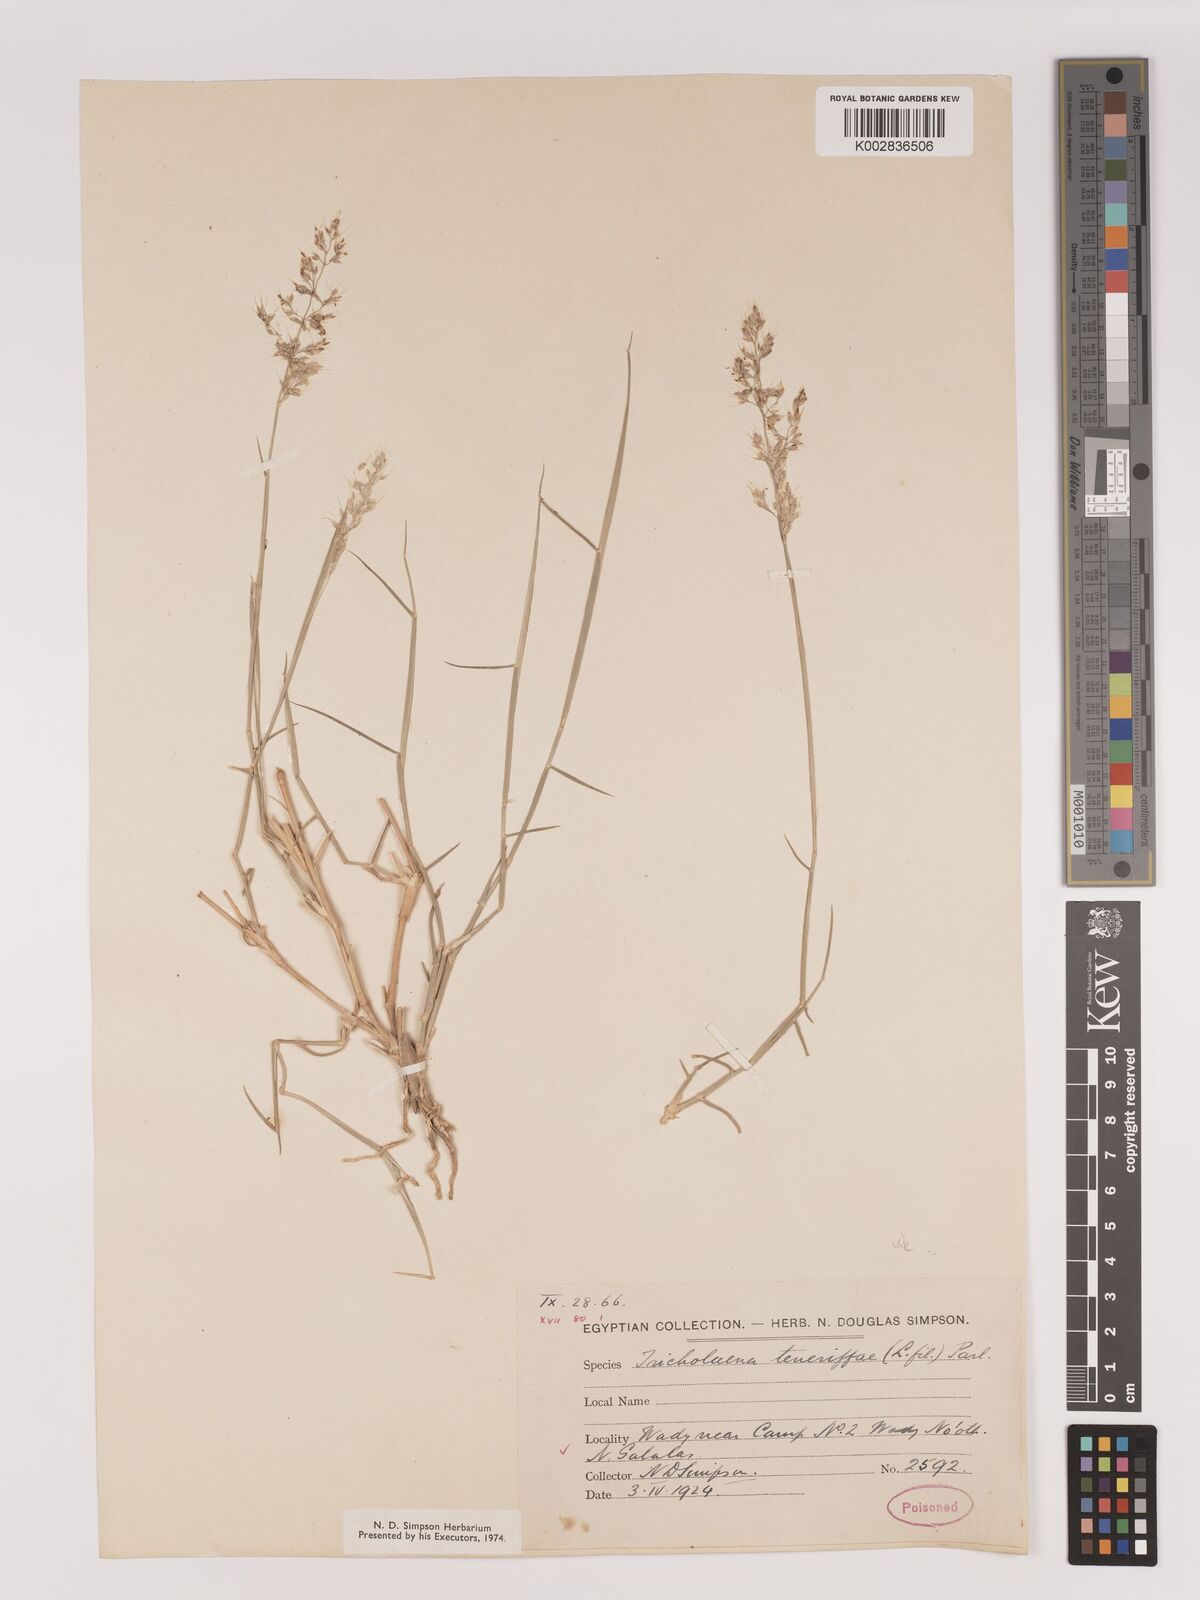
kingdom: Plantae
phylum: Tracheophyta
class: Liliopsida
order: Poales
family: Poaceae
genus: Tricholaena
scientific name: Tricholaena teneriffae
